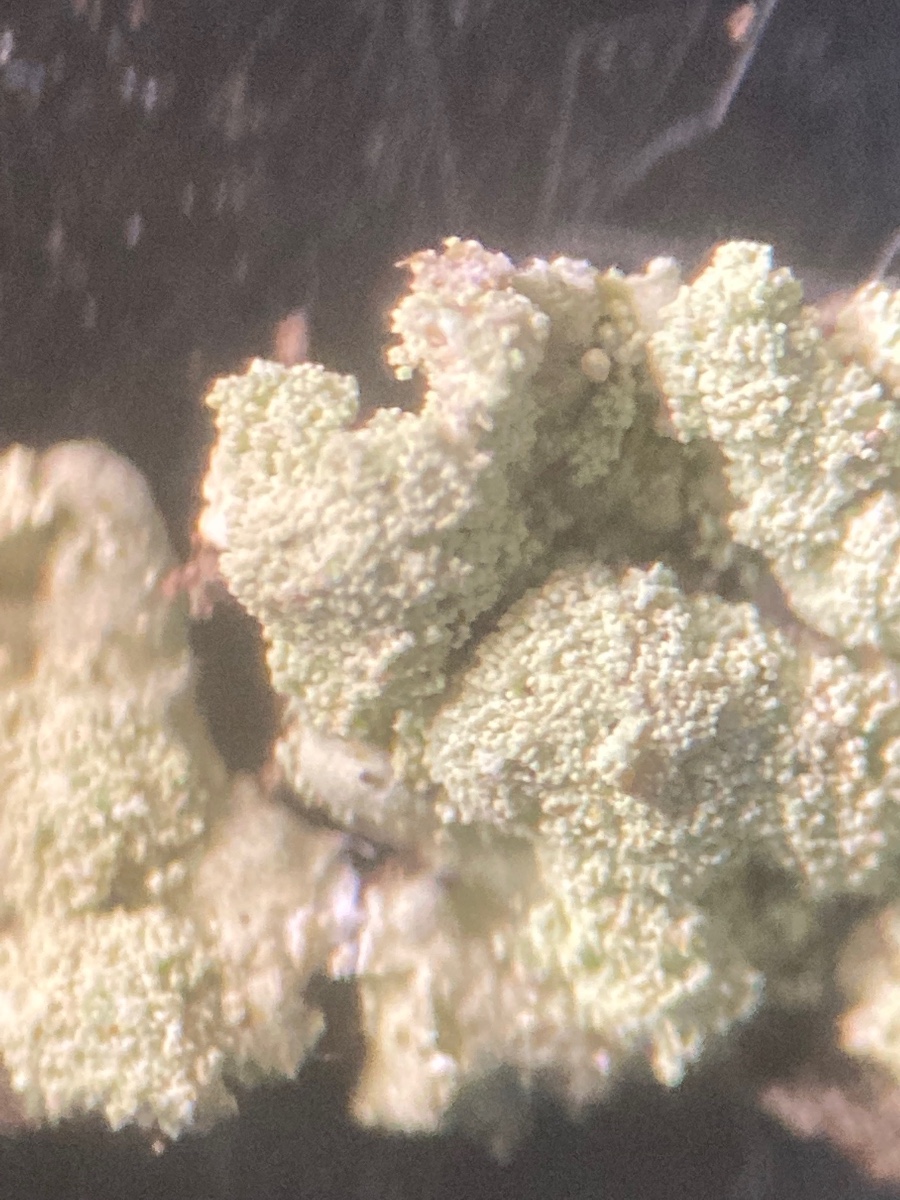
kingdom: Fungi
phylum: Ascomycota
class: Lecanoromycetes
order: Lecanorales
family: Parmeliaceae
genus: Parmeliopsis
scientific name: Parmeliopsis ambigua
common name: gul stolpelav
